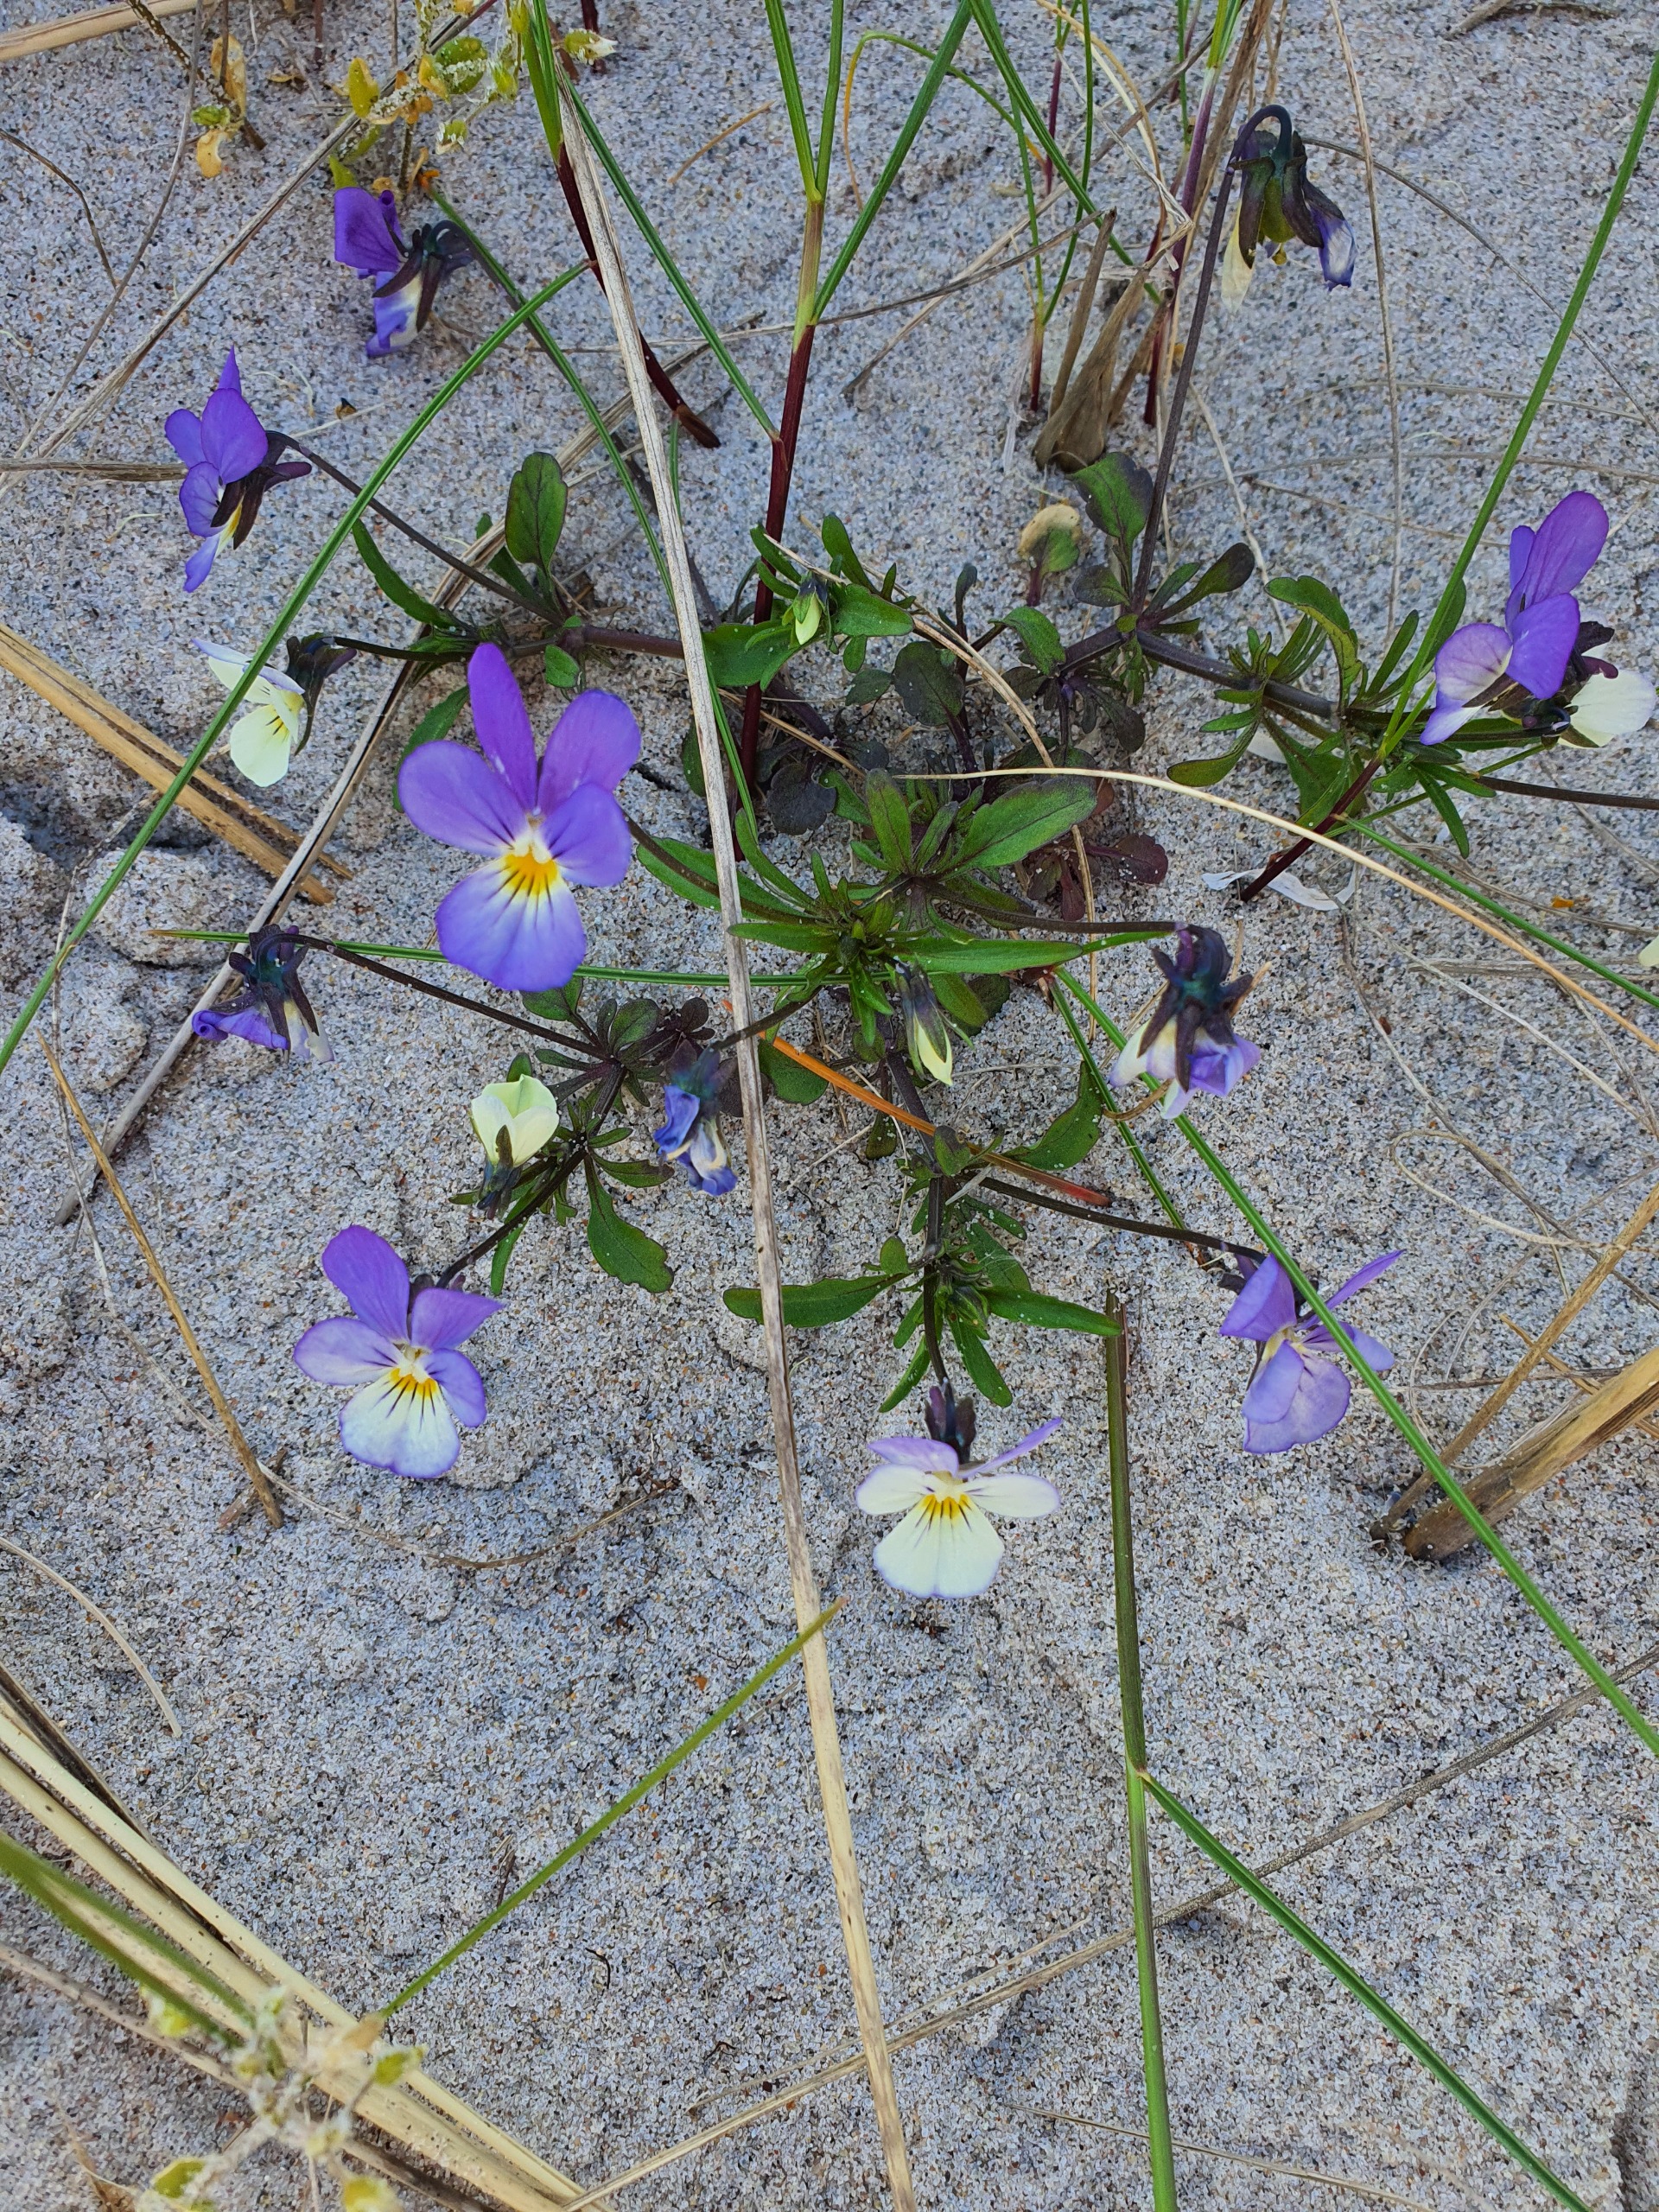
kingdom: Plantae
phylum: Tracheophyta
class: Magnoliopsida
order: Malpighiales
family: Violaceae
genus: Viola
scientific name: Viola tricolor
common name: Stedmoderblomst
